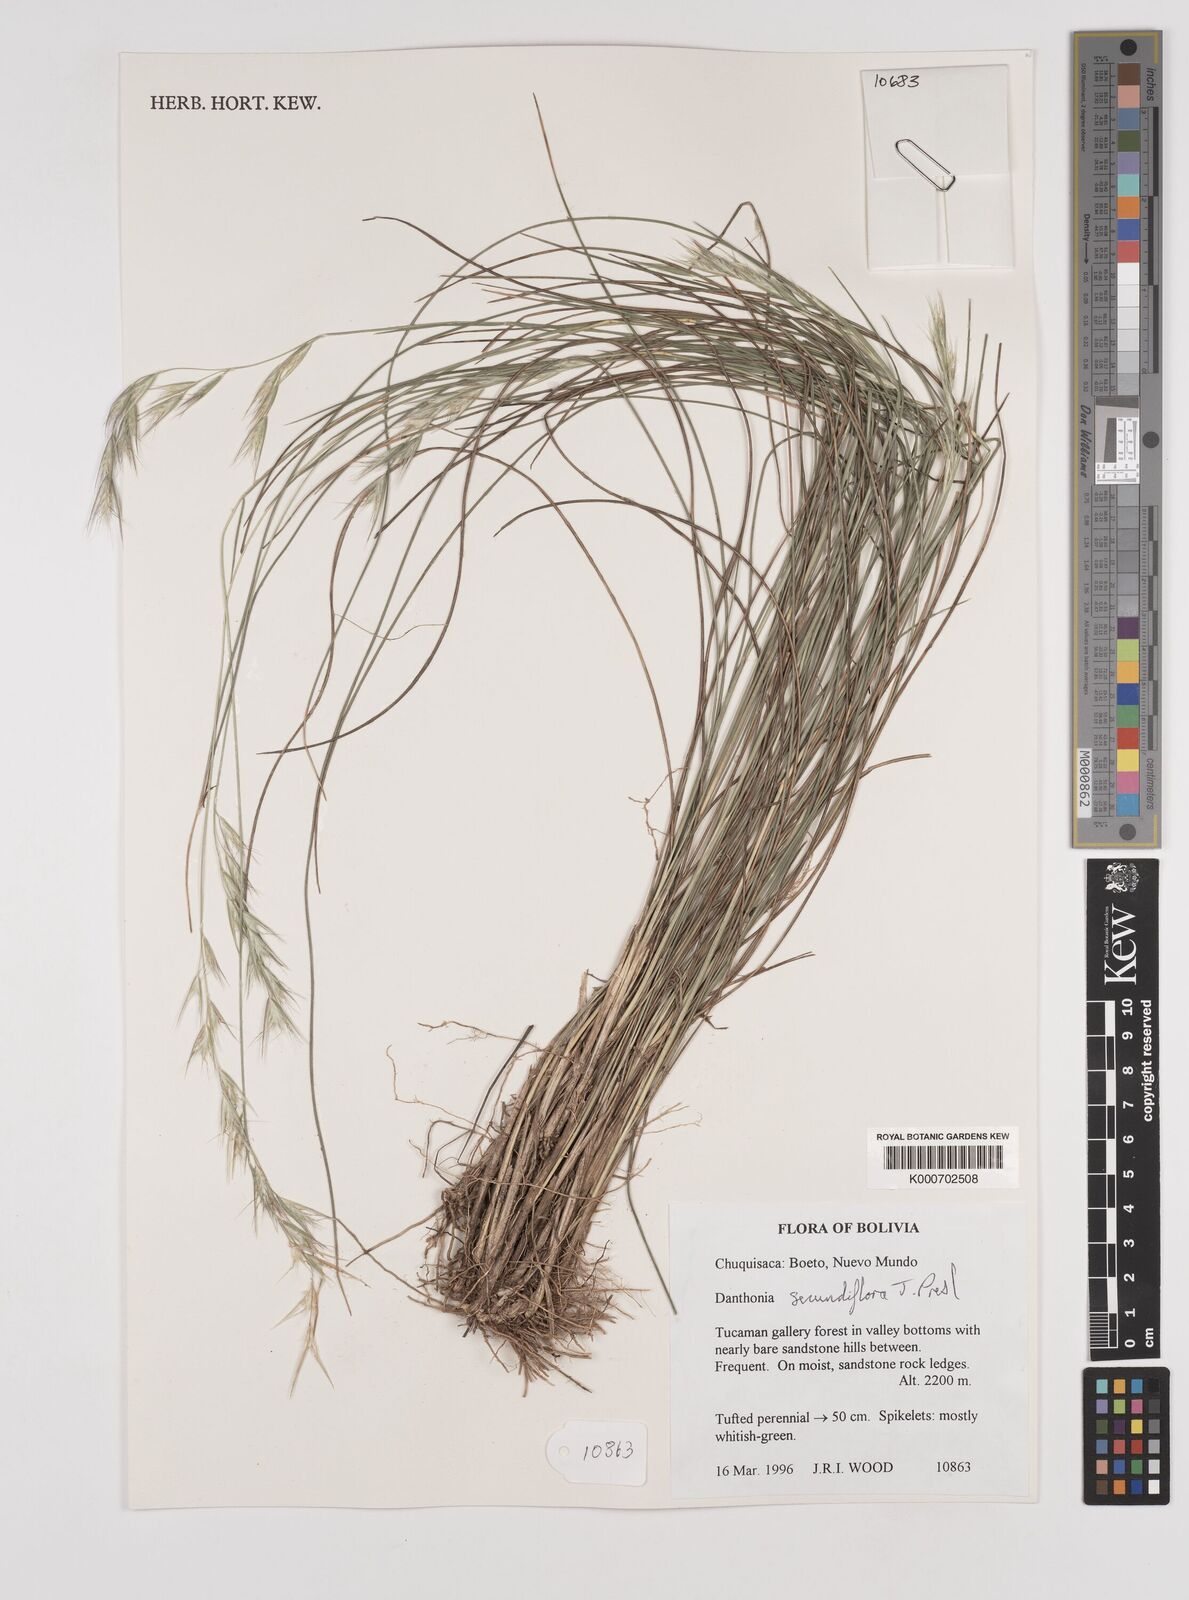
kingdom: Plantae
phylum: Tracheophyta
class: Liliopsida
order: Poales
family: Poaceae
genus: Danthonia
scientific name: Danthonia secundiflora
